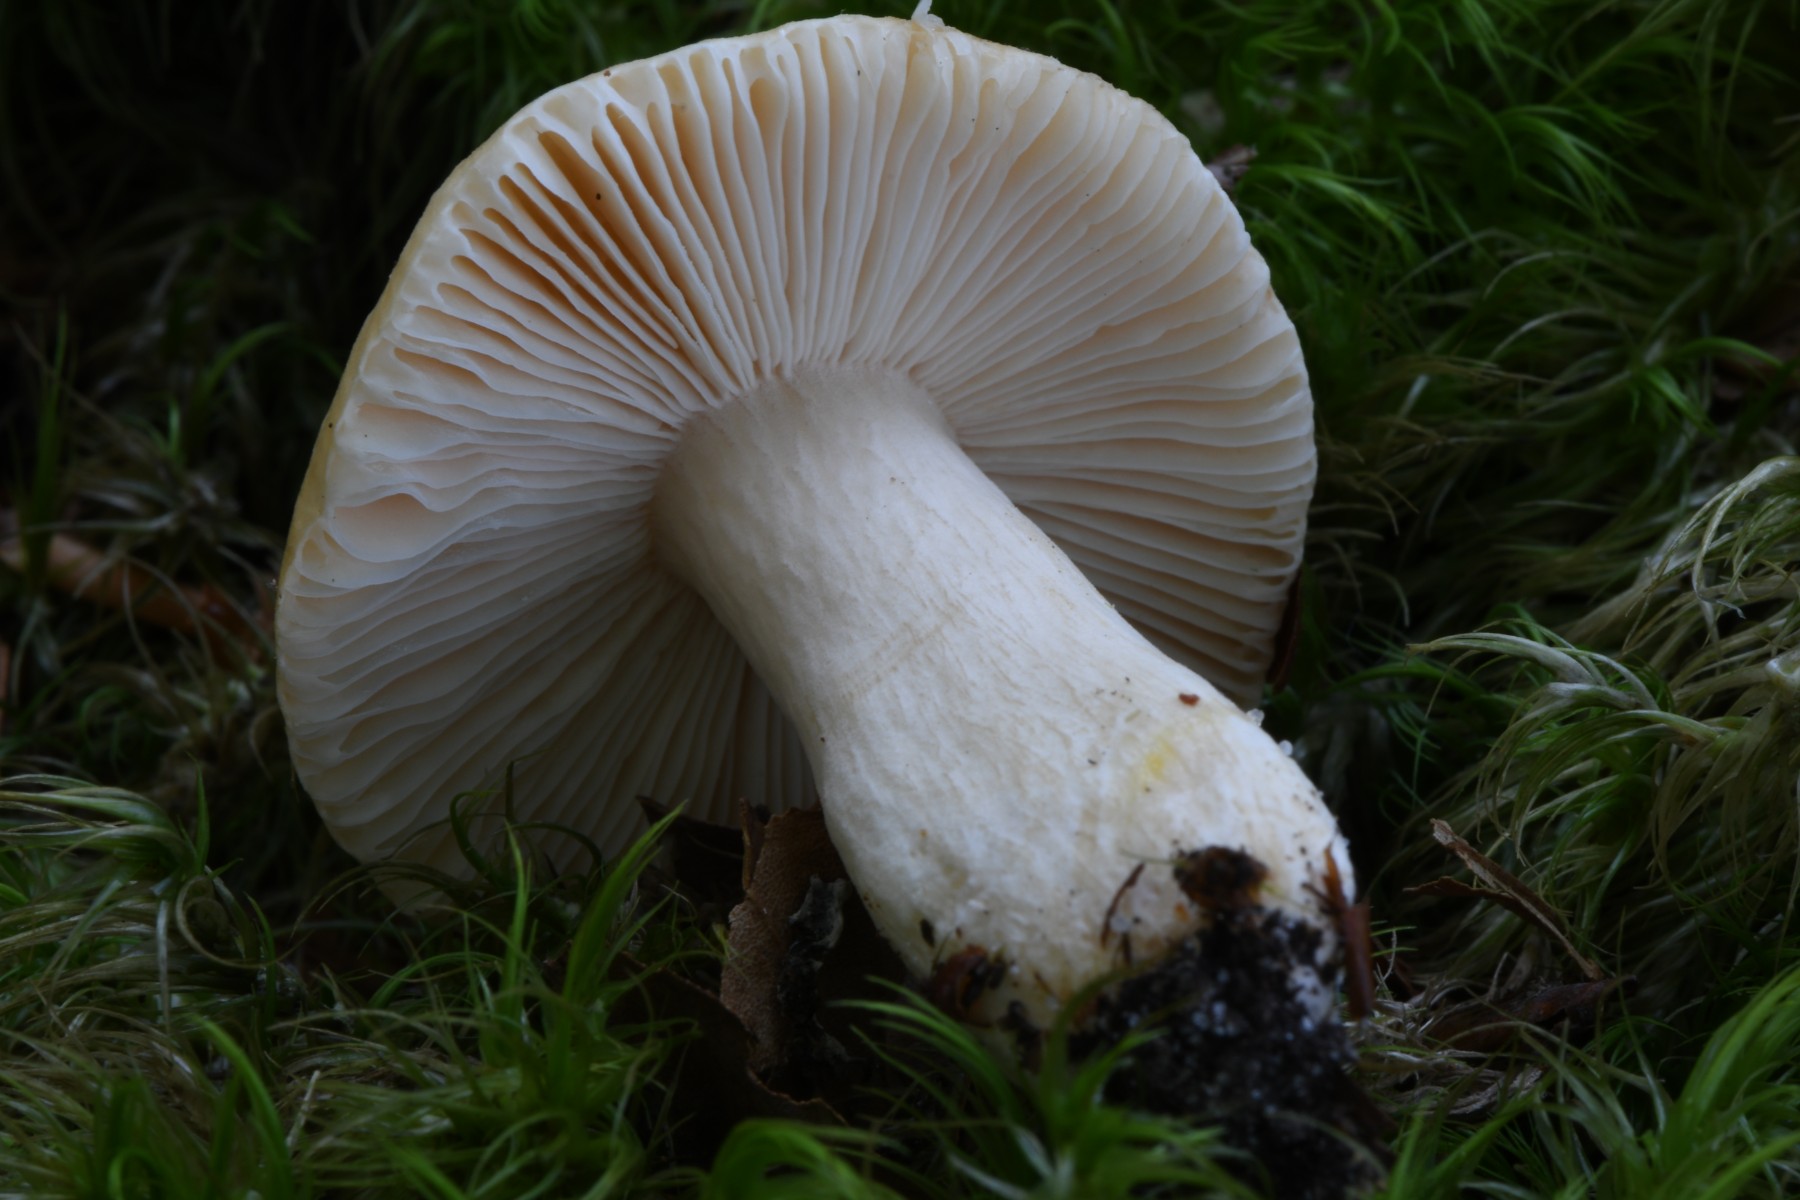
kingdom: Fungi
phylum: Basidiomycota
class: Agaricomycetes
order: Russulales
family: Russulaceae
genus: Russula
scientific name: Russula fellea
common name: galde-skørhat
